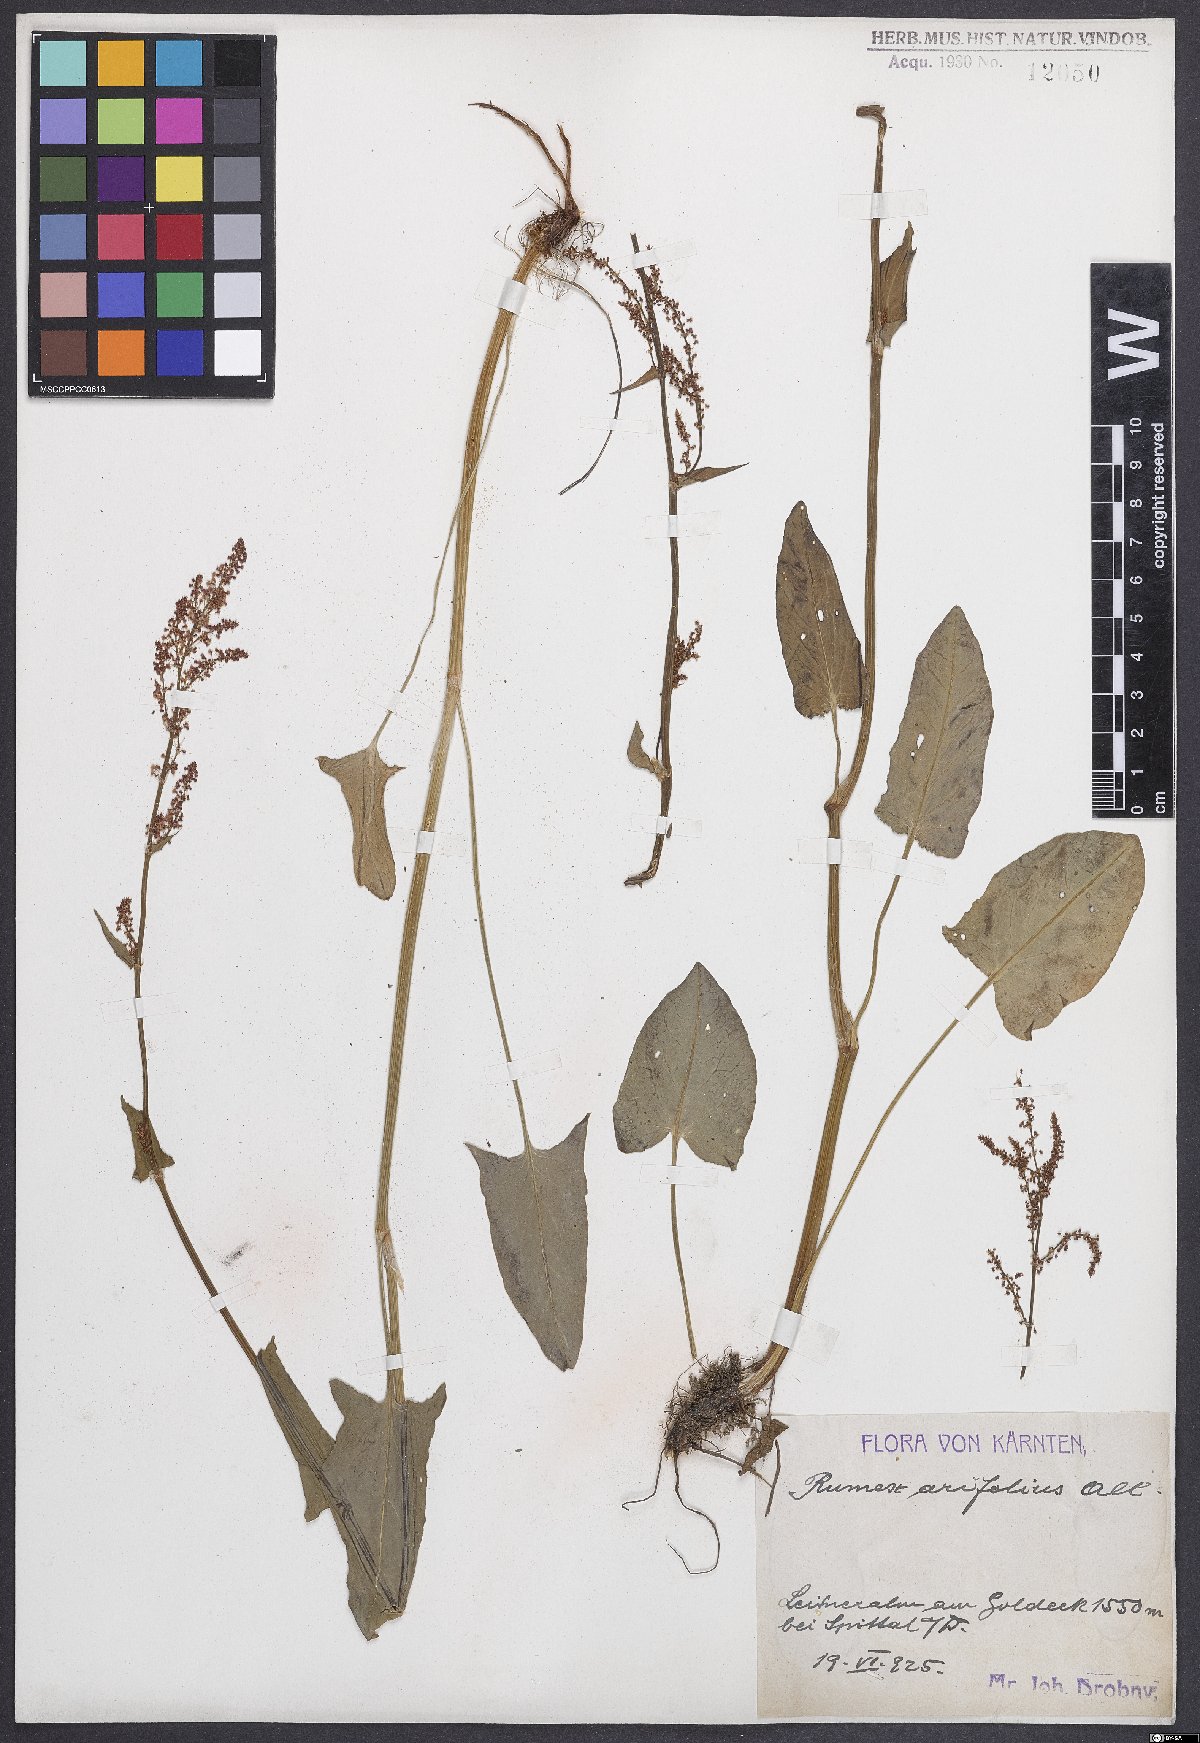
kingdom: Plantae
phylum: Tracheophyta
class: Magnoliopsida
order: Caryophyllales
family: Polygonaceae
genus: Rumex
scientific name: Rumex arifolius
